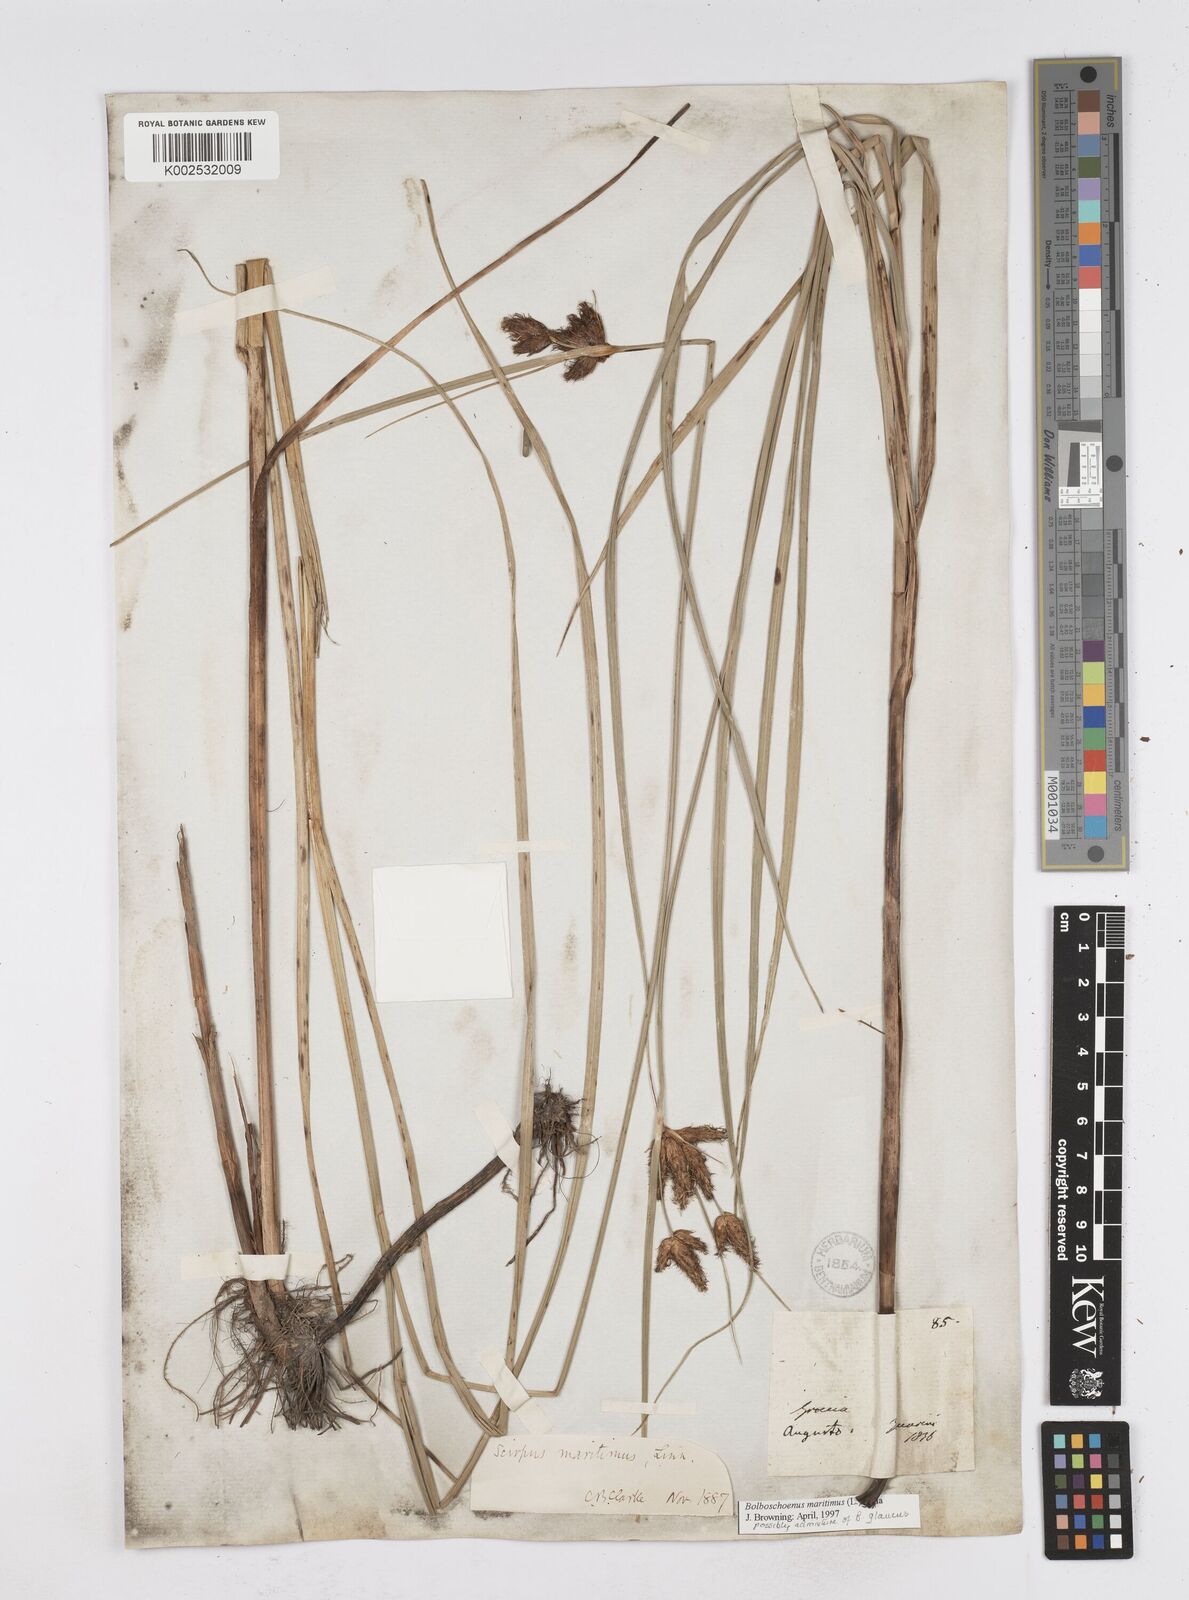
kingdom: Plantae
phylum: Tracheophyta
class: Liliopsida
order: Poales
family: Cyperaceae
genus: Bolboschoenus
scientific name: Bolboschoenus maritimus
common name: Sea club-rush
